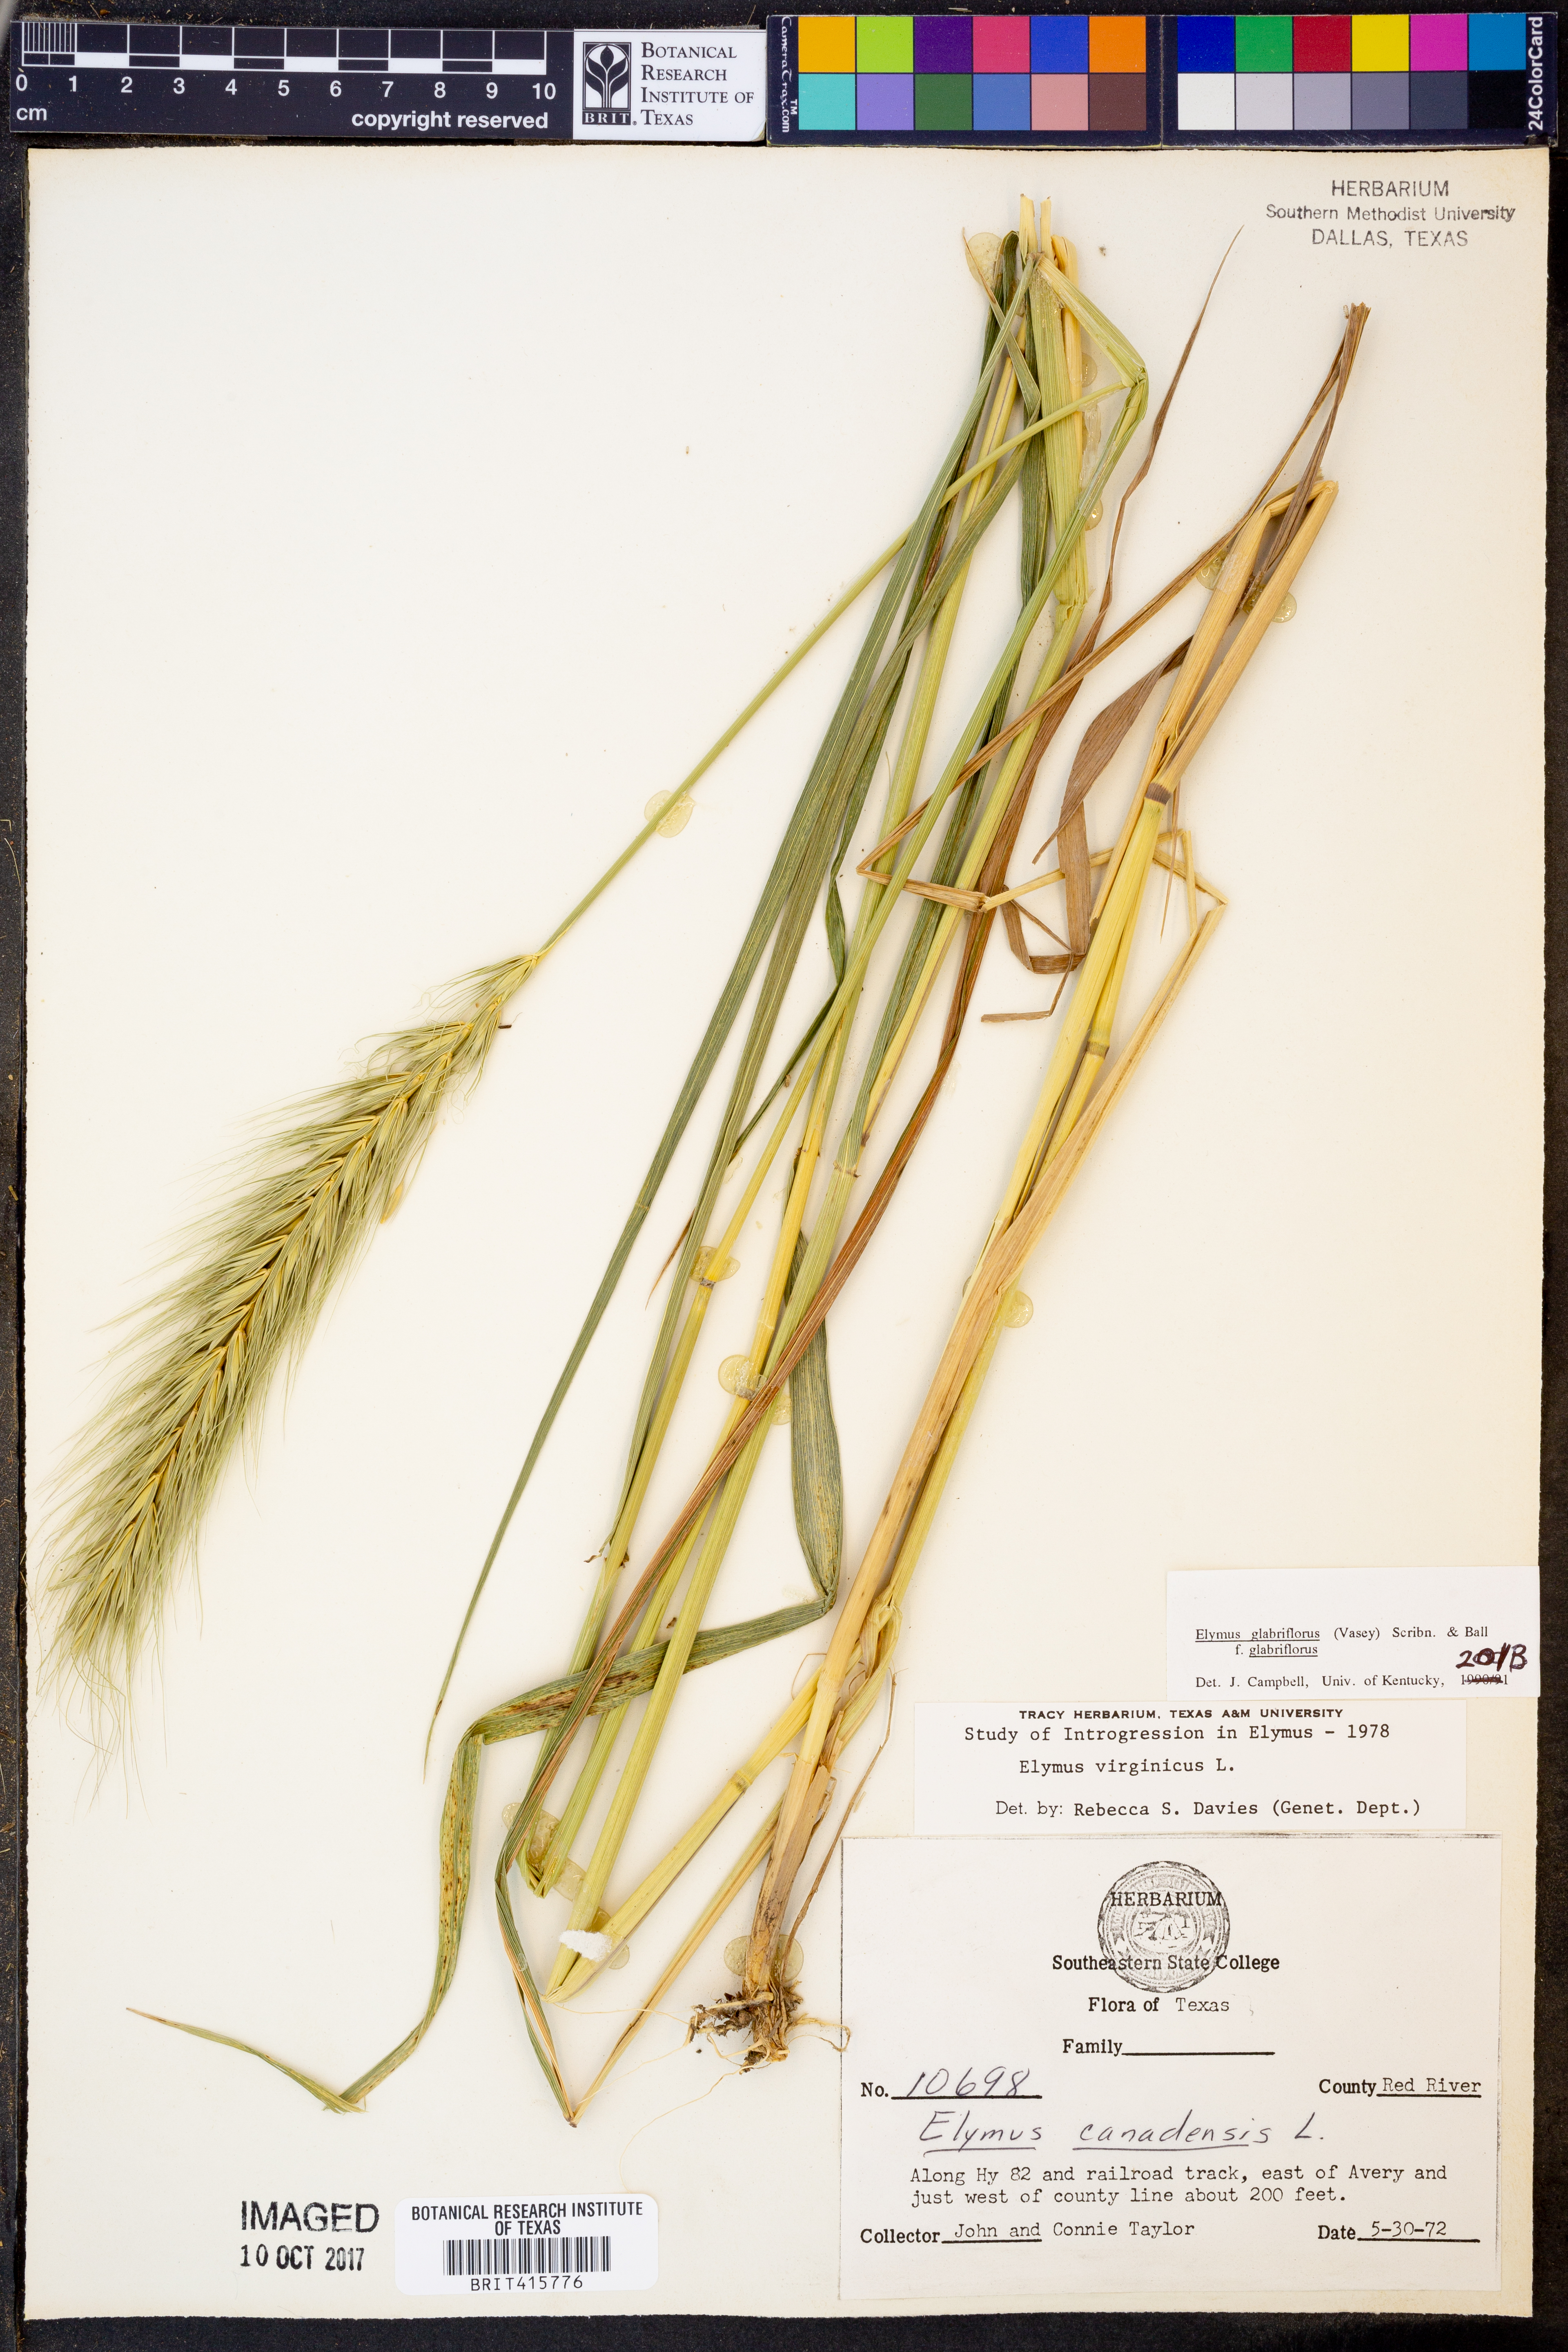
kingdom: Plantae
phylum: Tracheophyta
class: Liliopsida
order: Poales
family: Poaceae
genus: Elymus
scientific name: Elymus virginicus
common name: Common eastern wildrye
